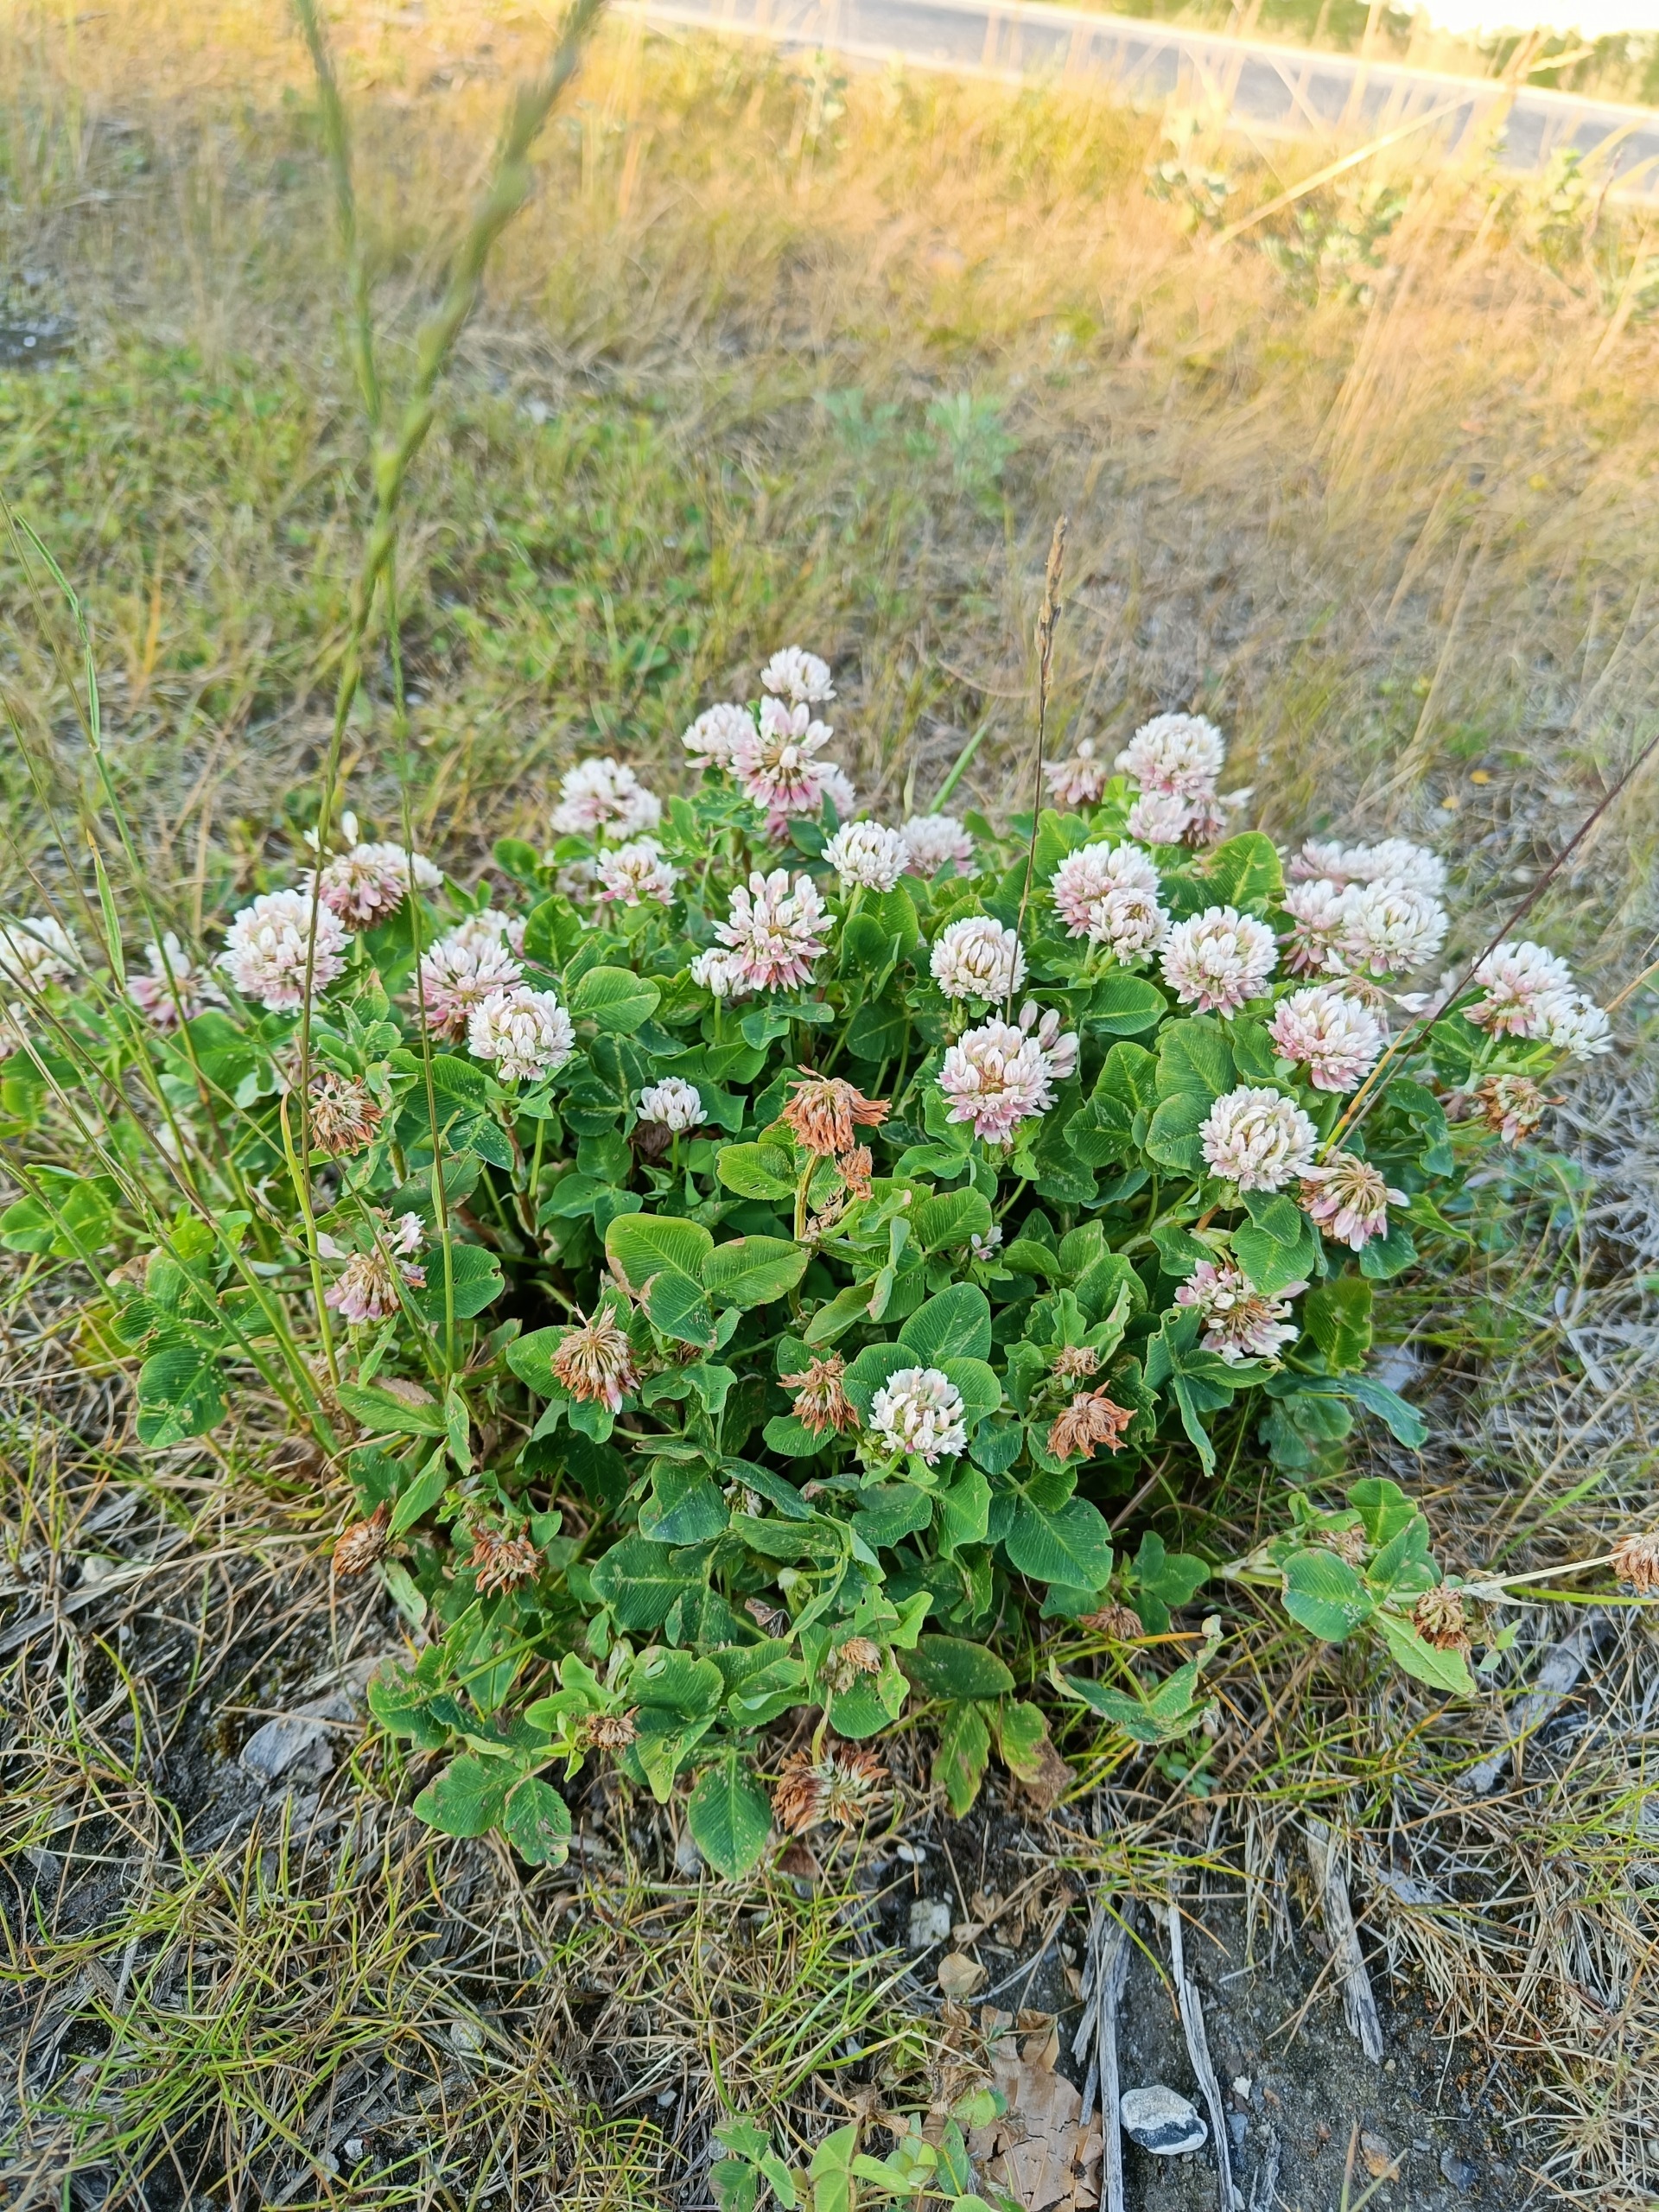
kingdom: Plantae
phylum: Tracheophyta
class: Magnoliopsida
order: Fabales
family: Fabaceae
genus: Trifolium
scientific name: Trifolium hybridum
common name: Alsike-kløver
